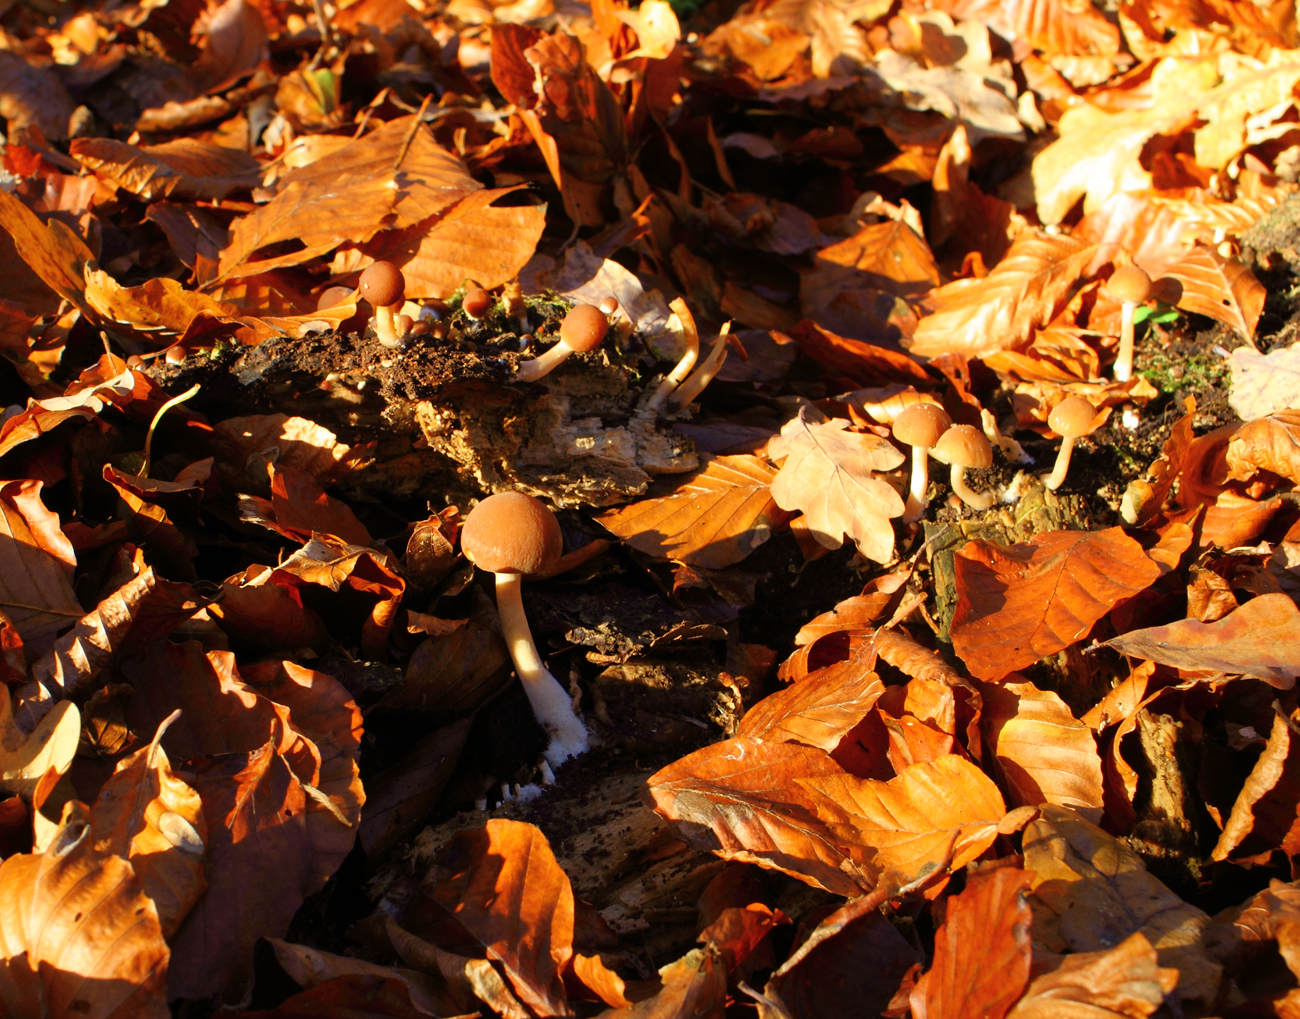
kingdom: Fungi
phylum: Basidiomycota
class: Agaricomycetes
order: Agaricales
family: Psathyrellaceae
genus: Psathyrella
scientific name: Psathyrella piluliformis
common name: lysstokket mørkhat
